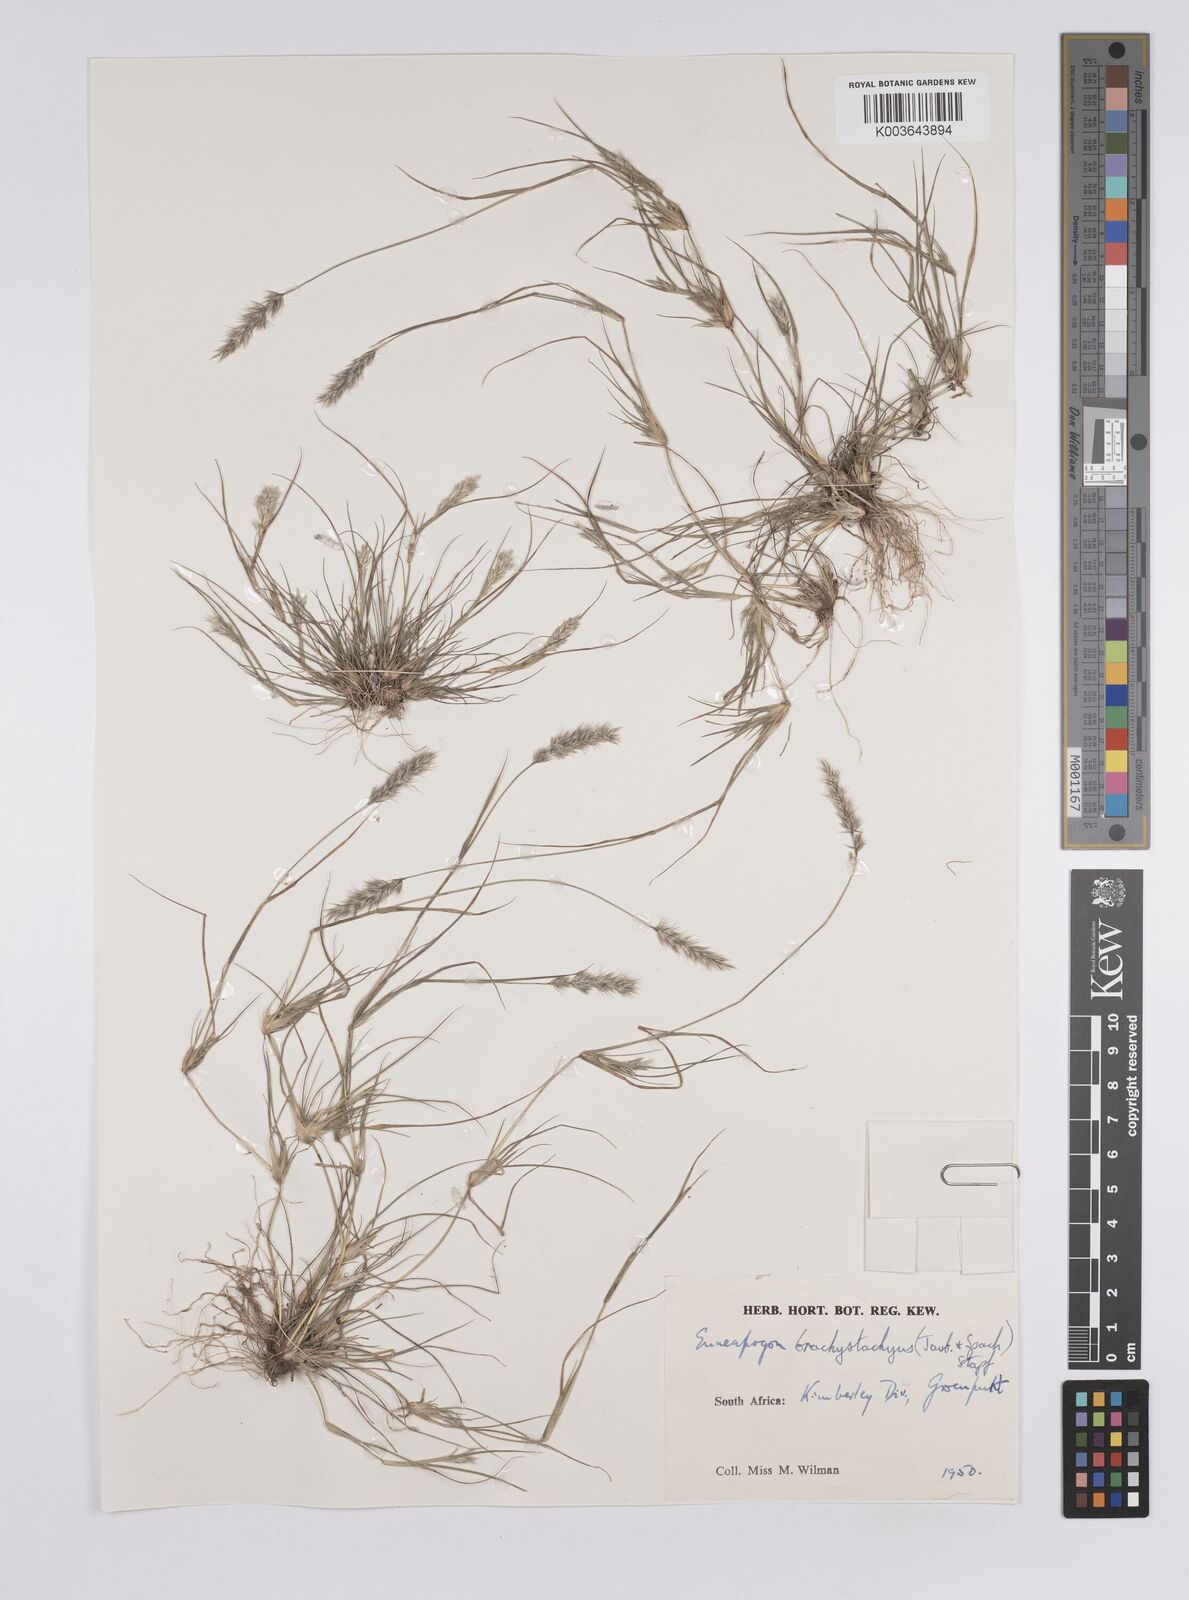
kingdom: Plantae
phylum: Tracheophyta
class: Liliopsida
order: Poales
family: Poaceae
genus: Enneapogon
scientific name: Enneapogon desvauxii
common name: Feather pappus grass
